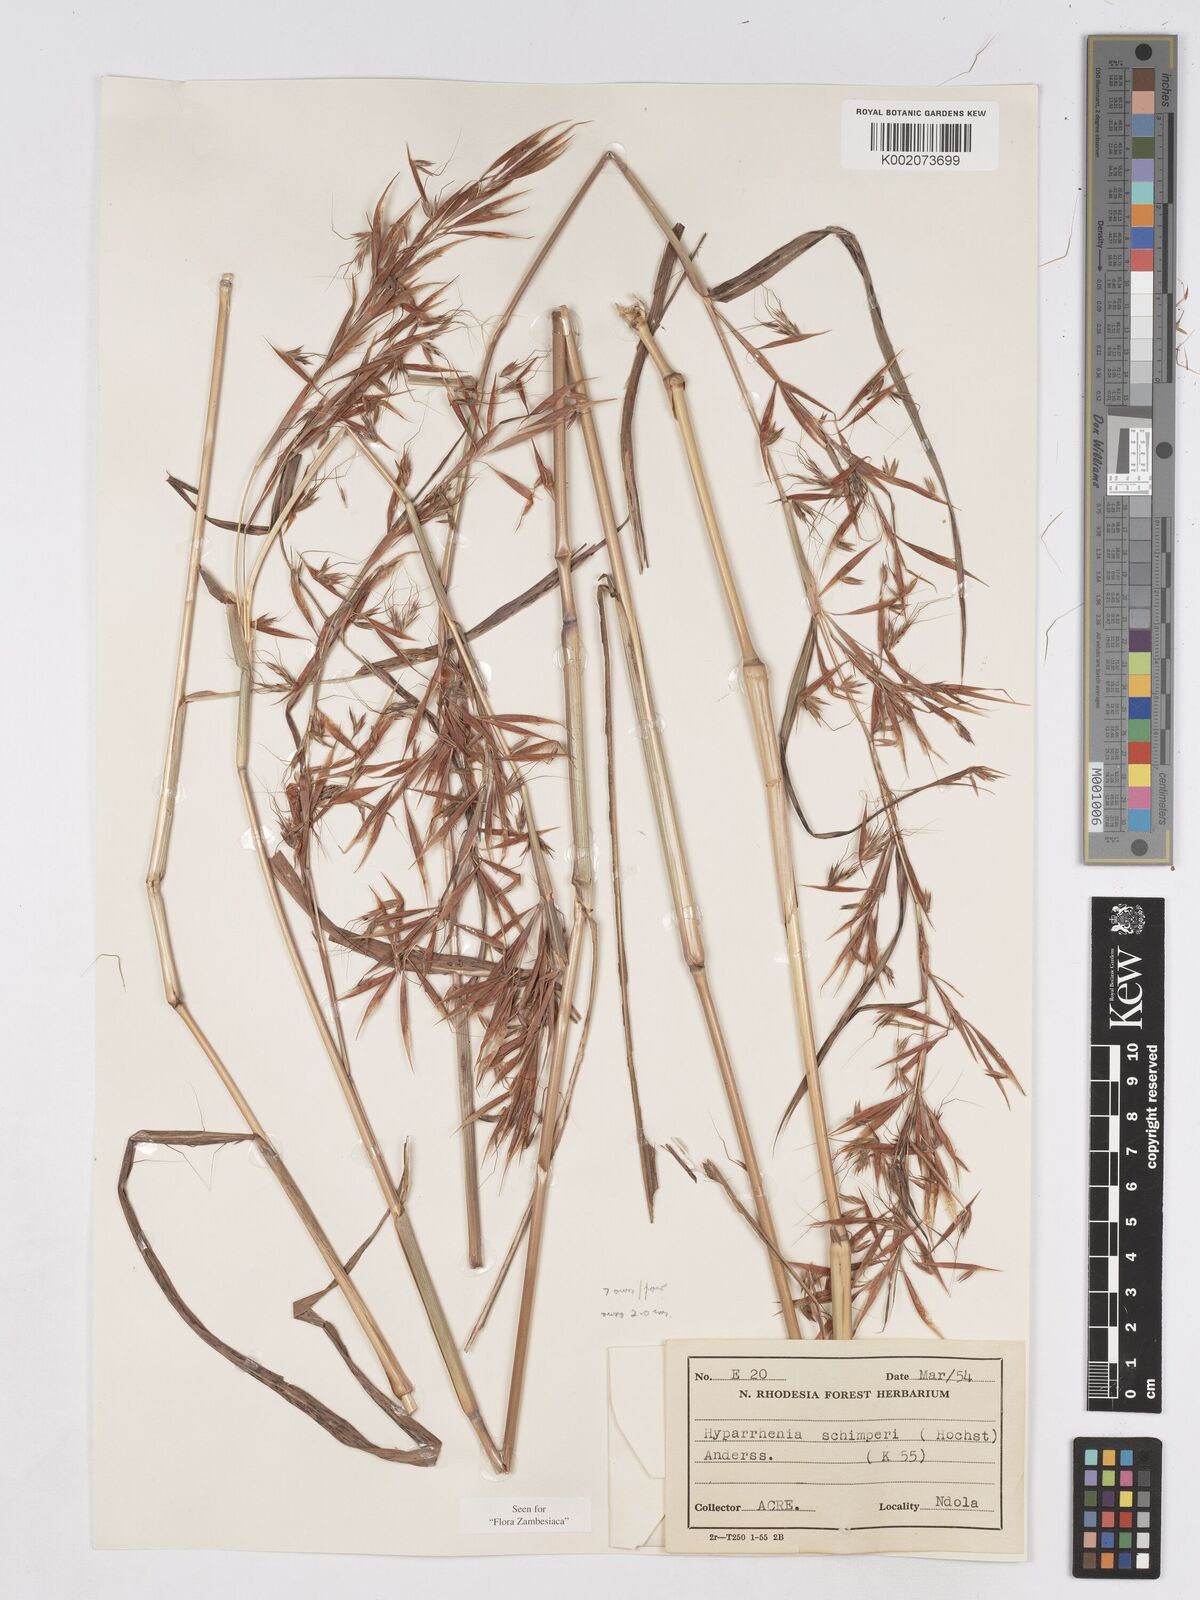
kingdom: Plantae
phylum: Tracheophyta
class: Liliopsida
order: Poales
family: Poaceae
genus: Hyparrhenia
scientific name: Hyparrhenia schimperi
